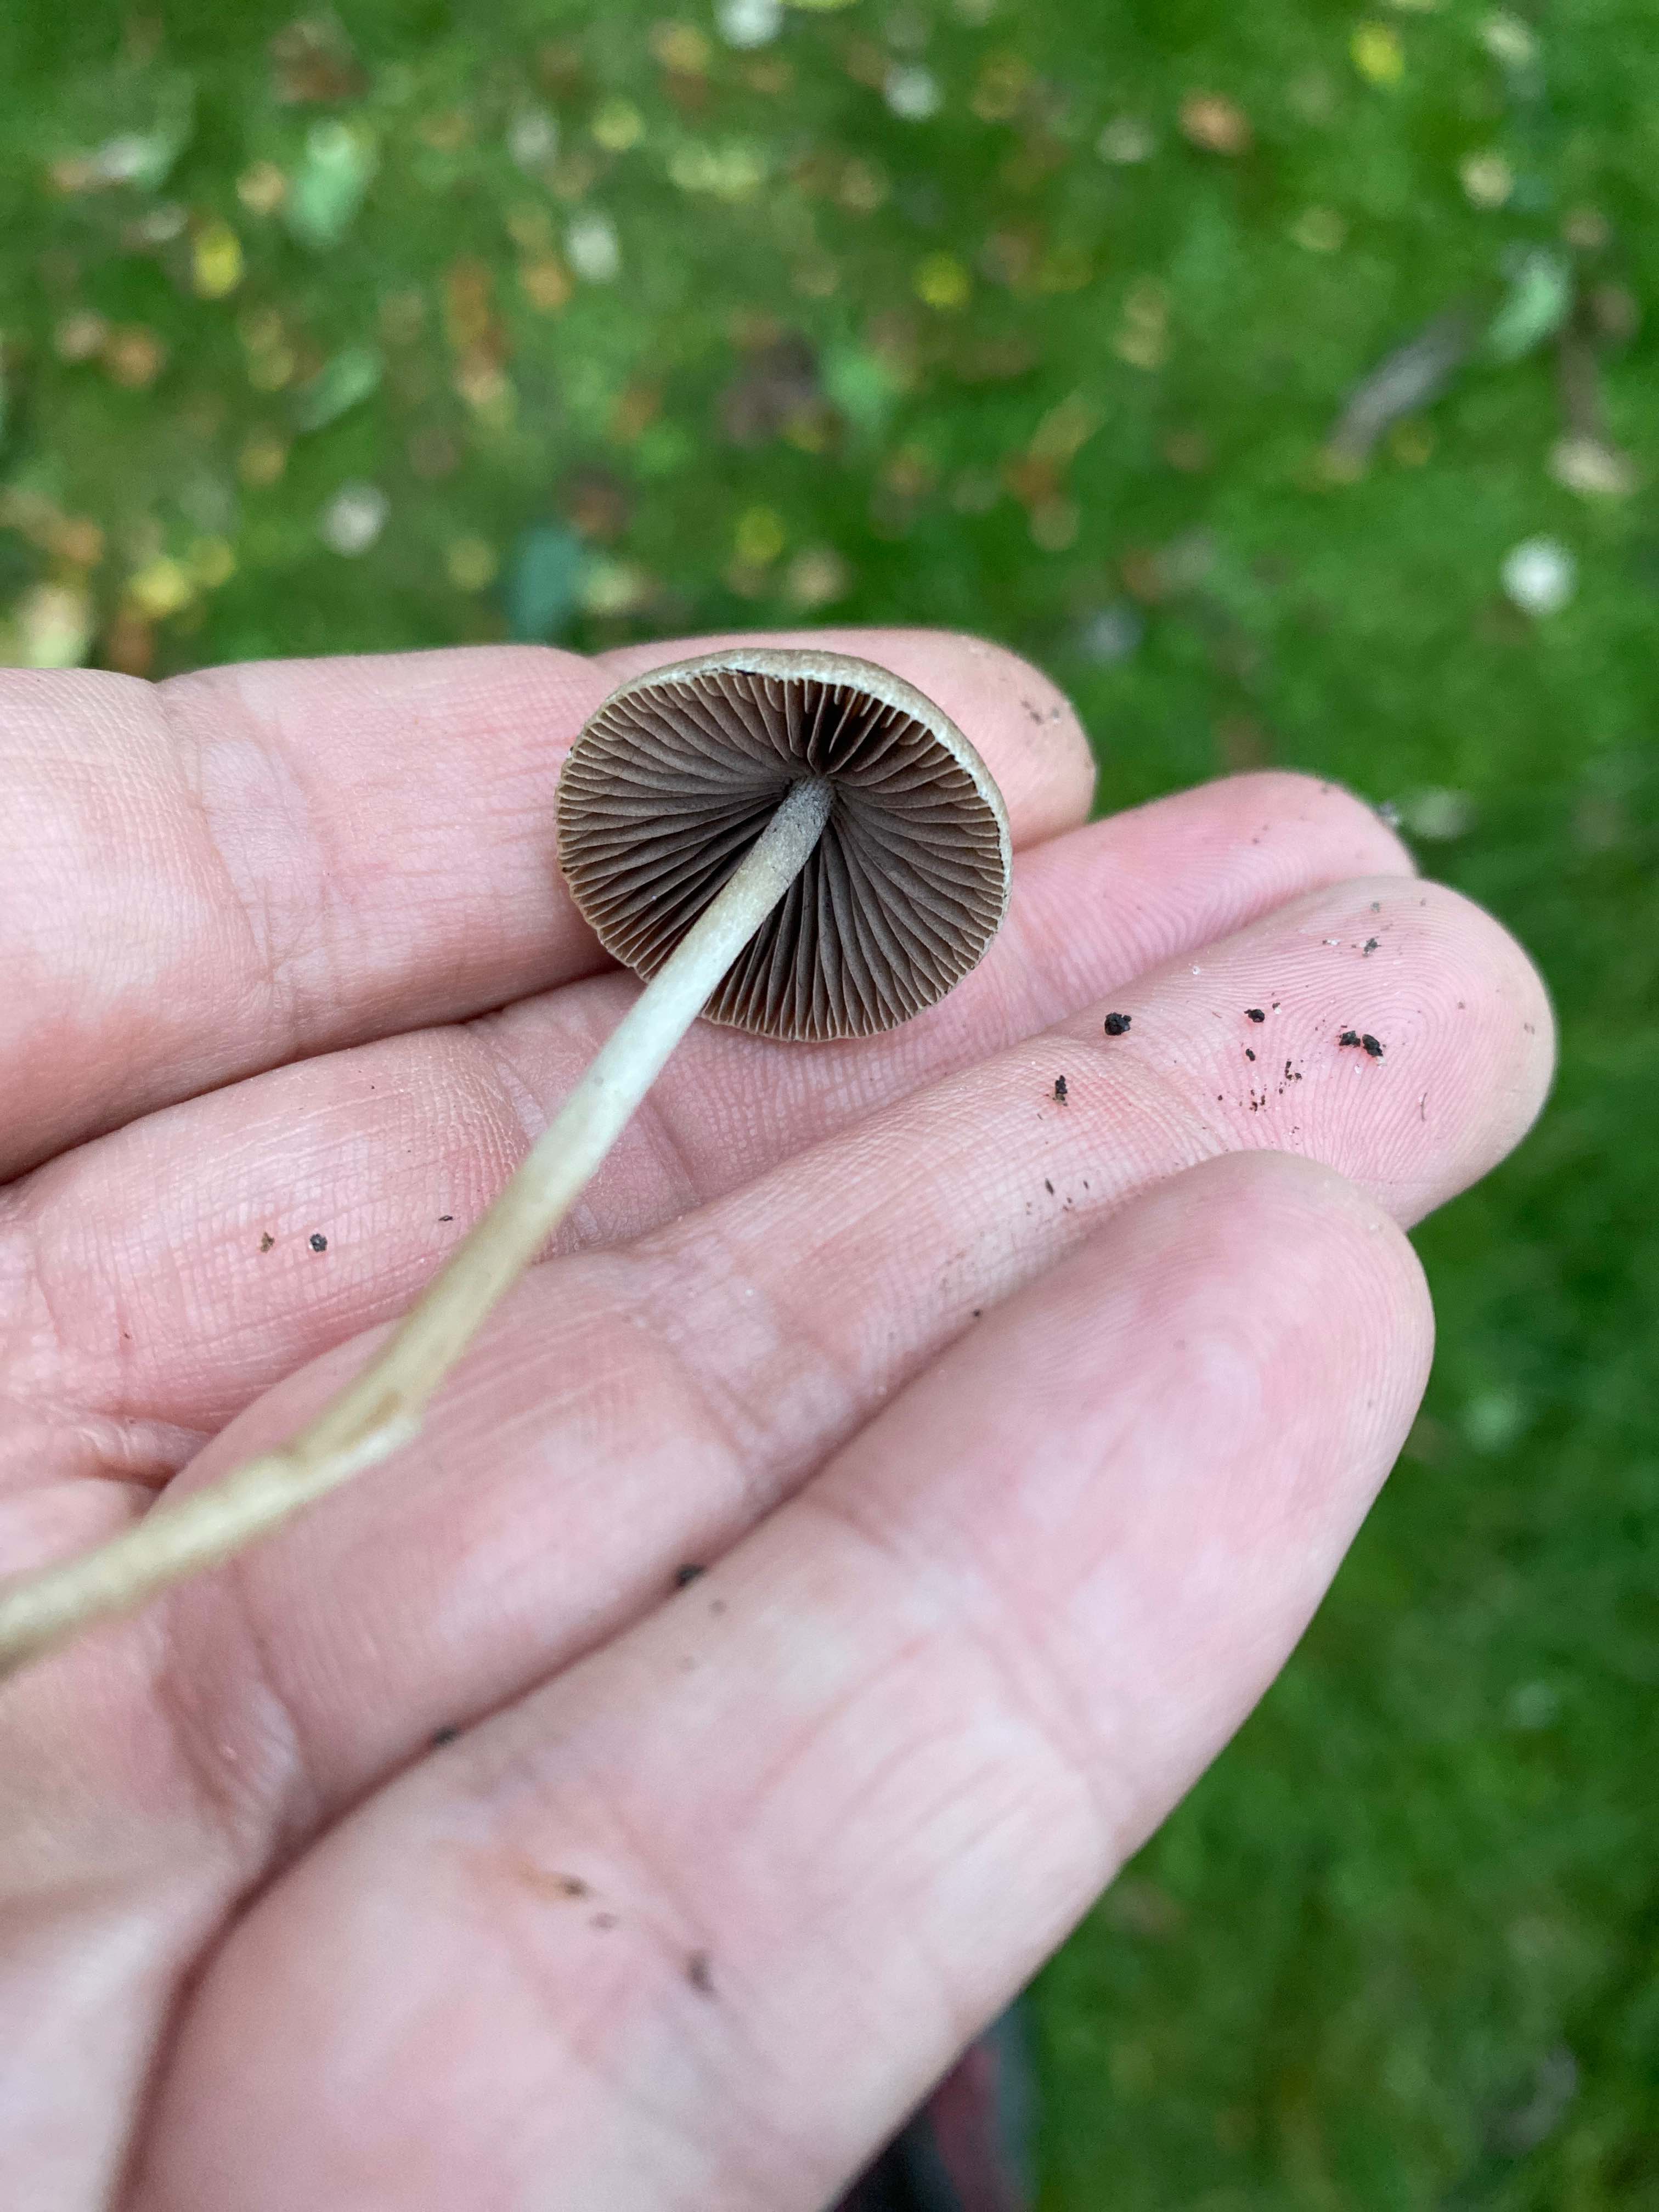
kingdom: Fungi
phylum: Basidiomycota
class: Agaricomycetes
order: Agaricales
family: Psathyrellaceae
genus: Psathyrella
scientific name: Psathyrella
